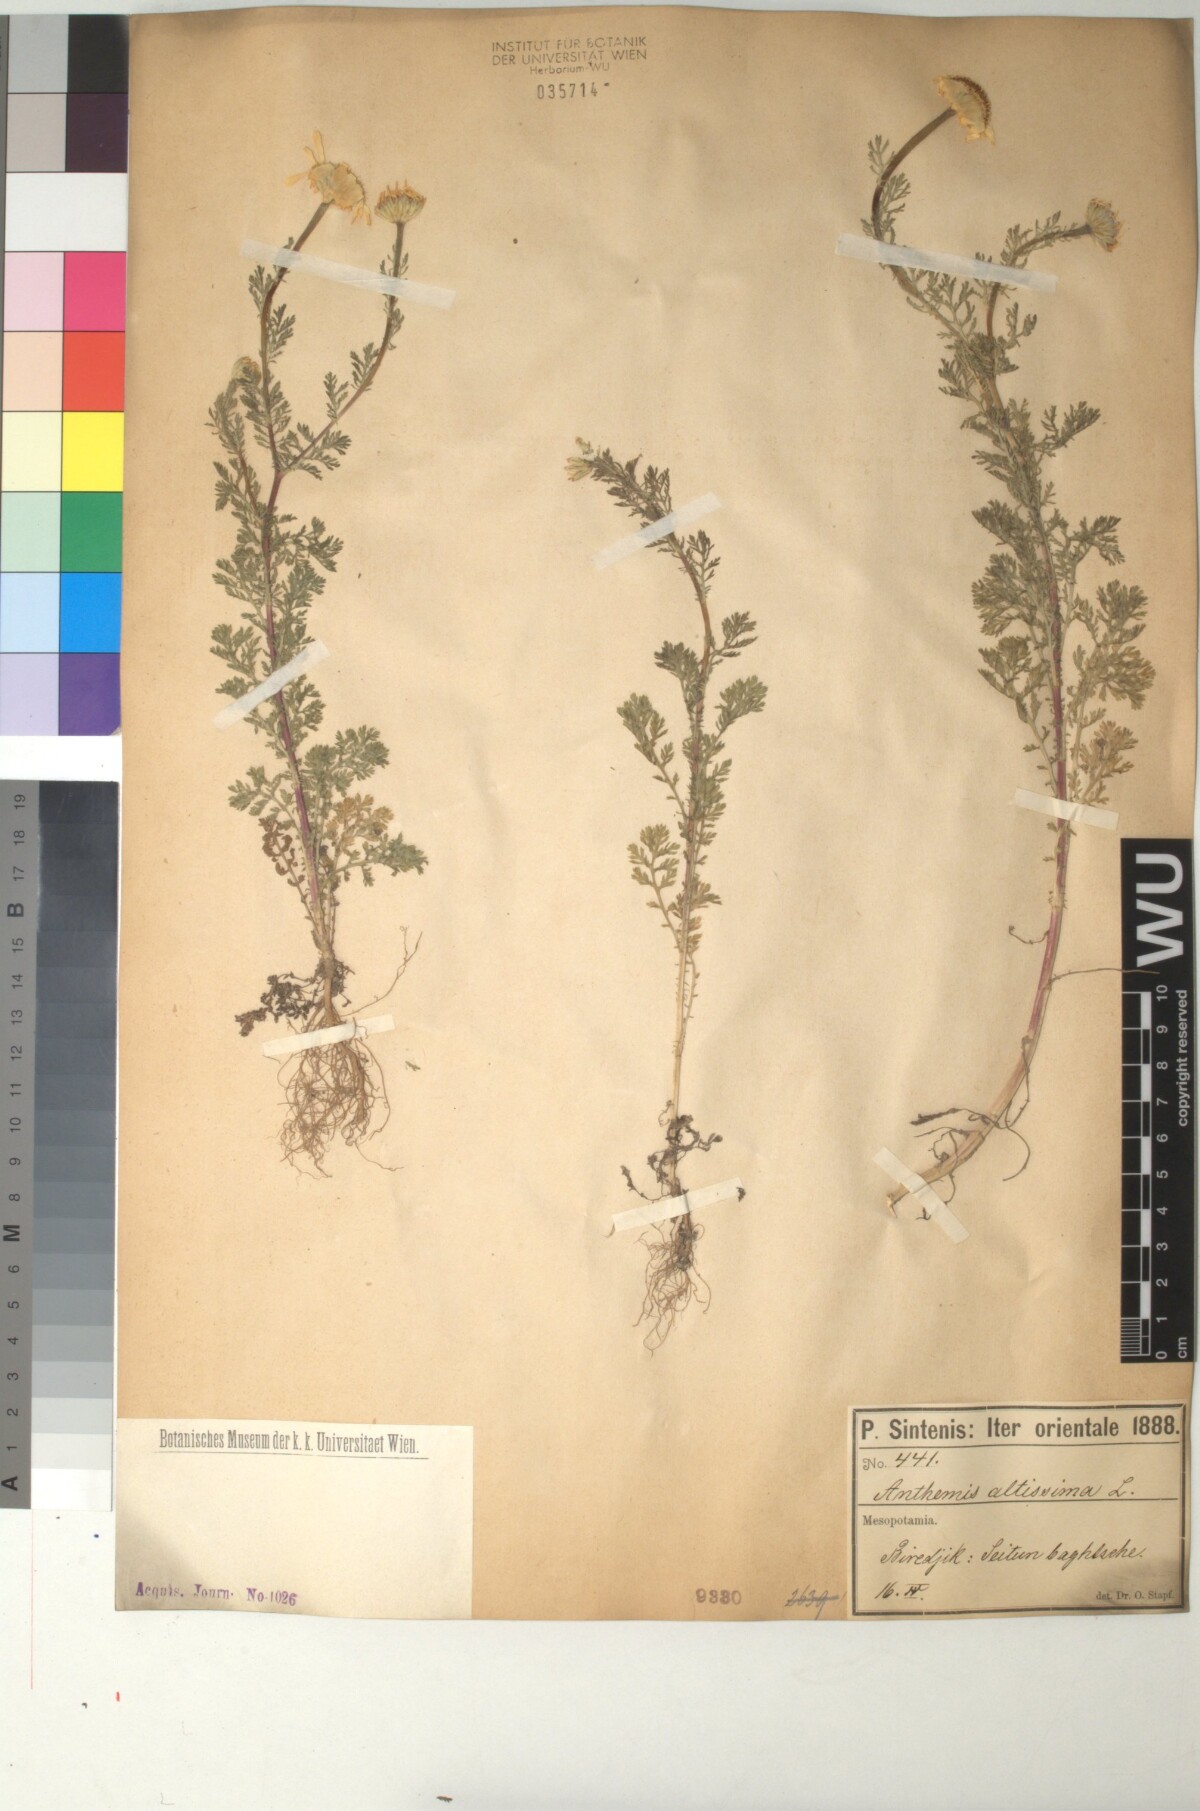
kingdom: Plantae
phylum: Tracheophyta
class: Magnoliopsida
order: Asterales
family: Asteraceae
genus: Cota
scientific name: Cota altissima
